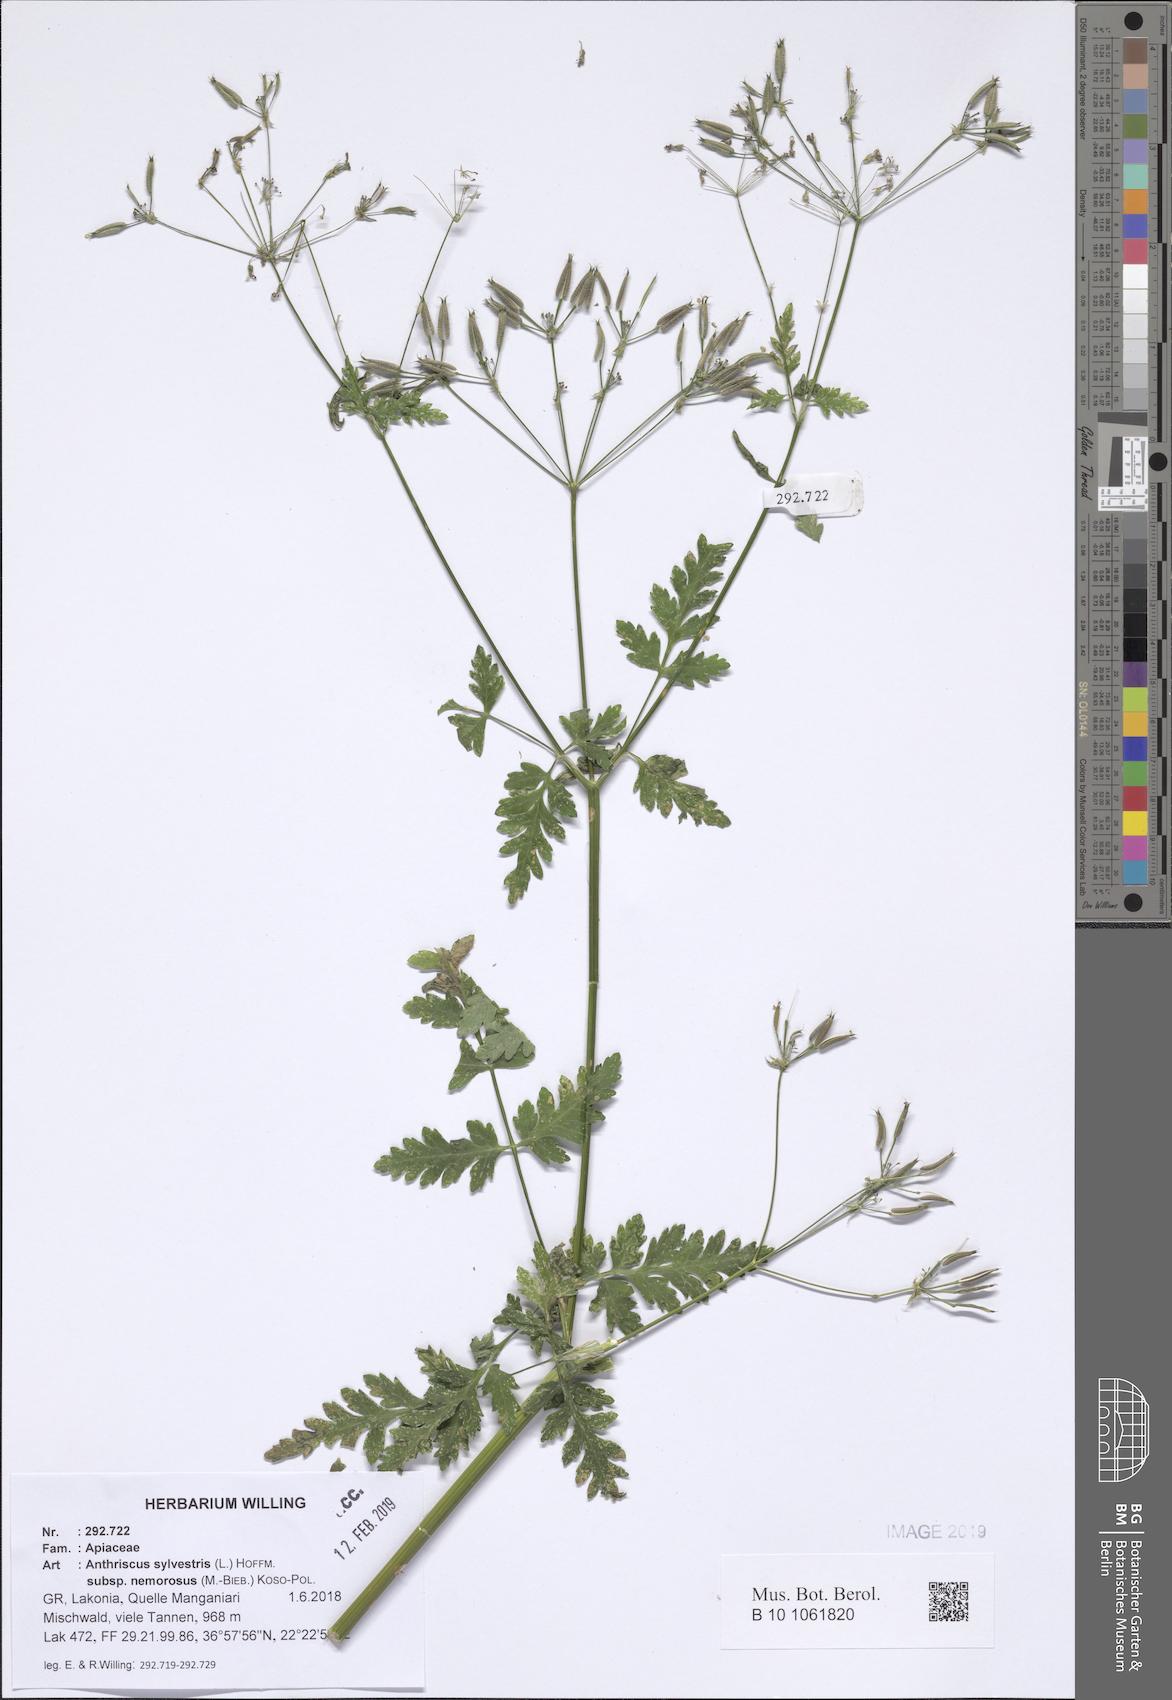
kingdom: Plantae
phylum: Tracheophyta
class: Magnoliopsida
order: Apiales
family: Apiaceae
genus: Anthriscus
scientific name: Anthriscus sylvestris
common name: Cow parsley
